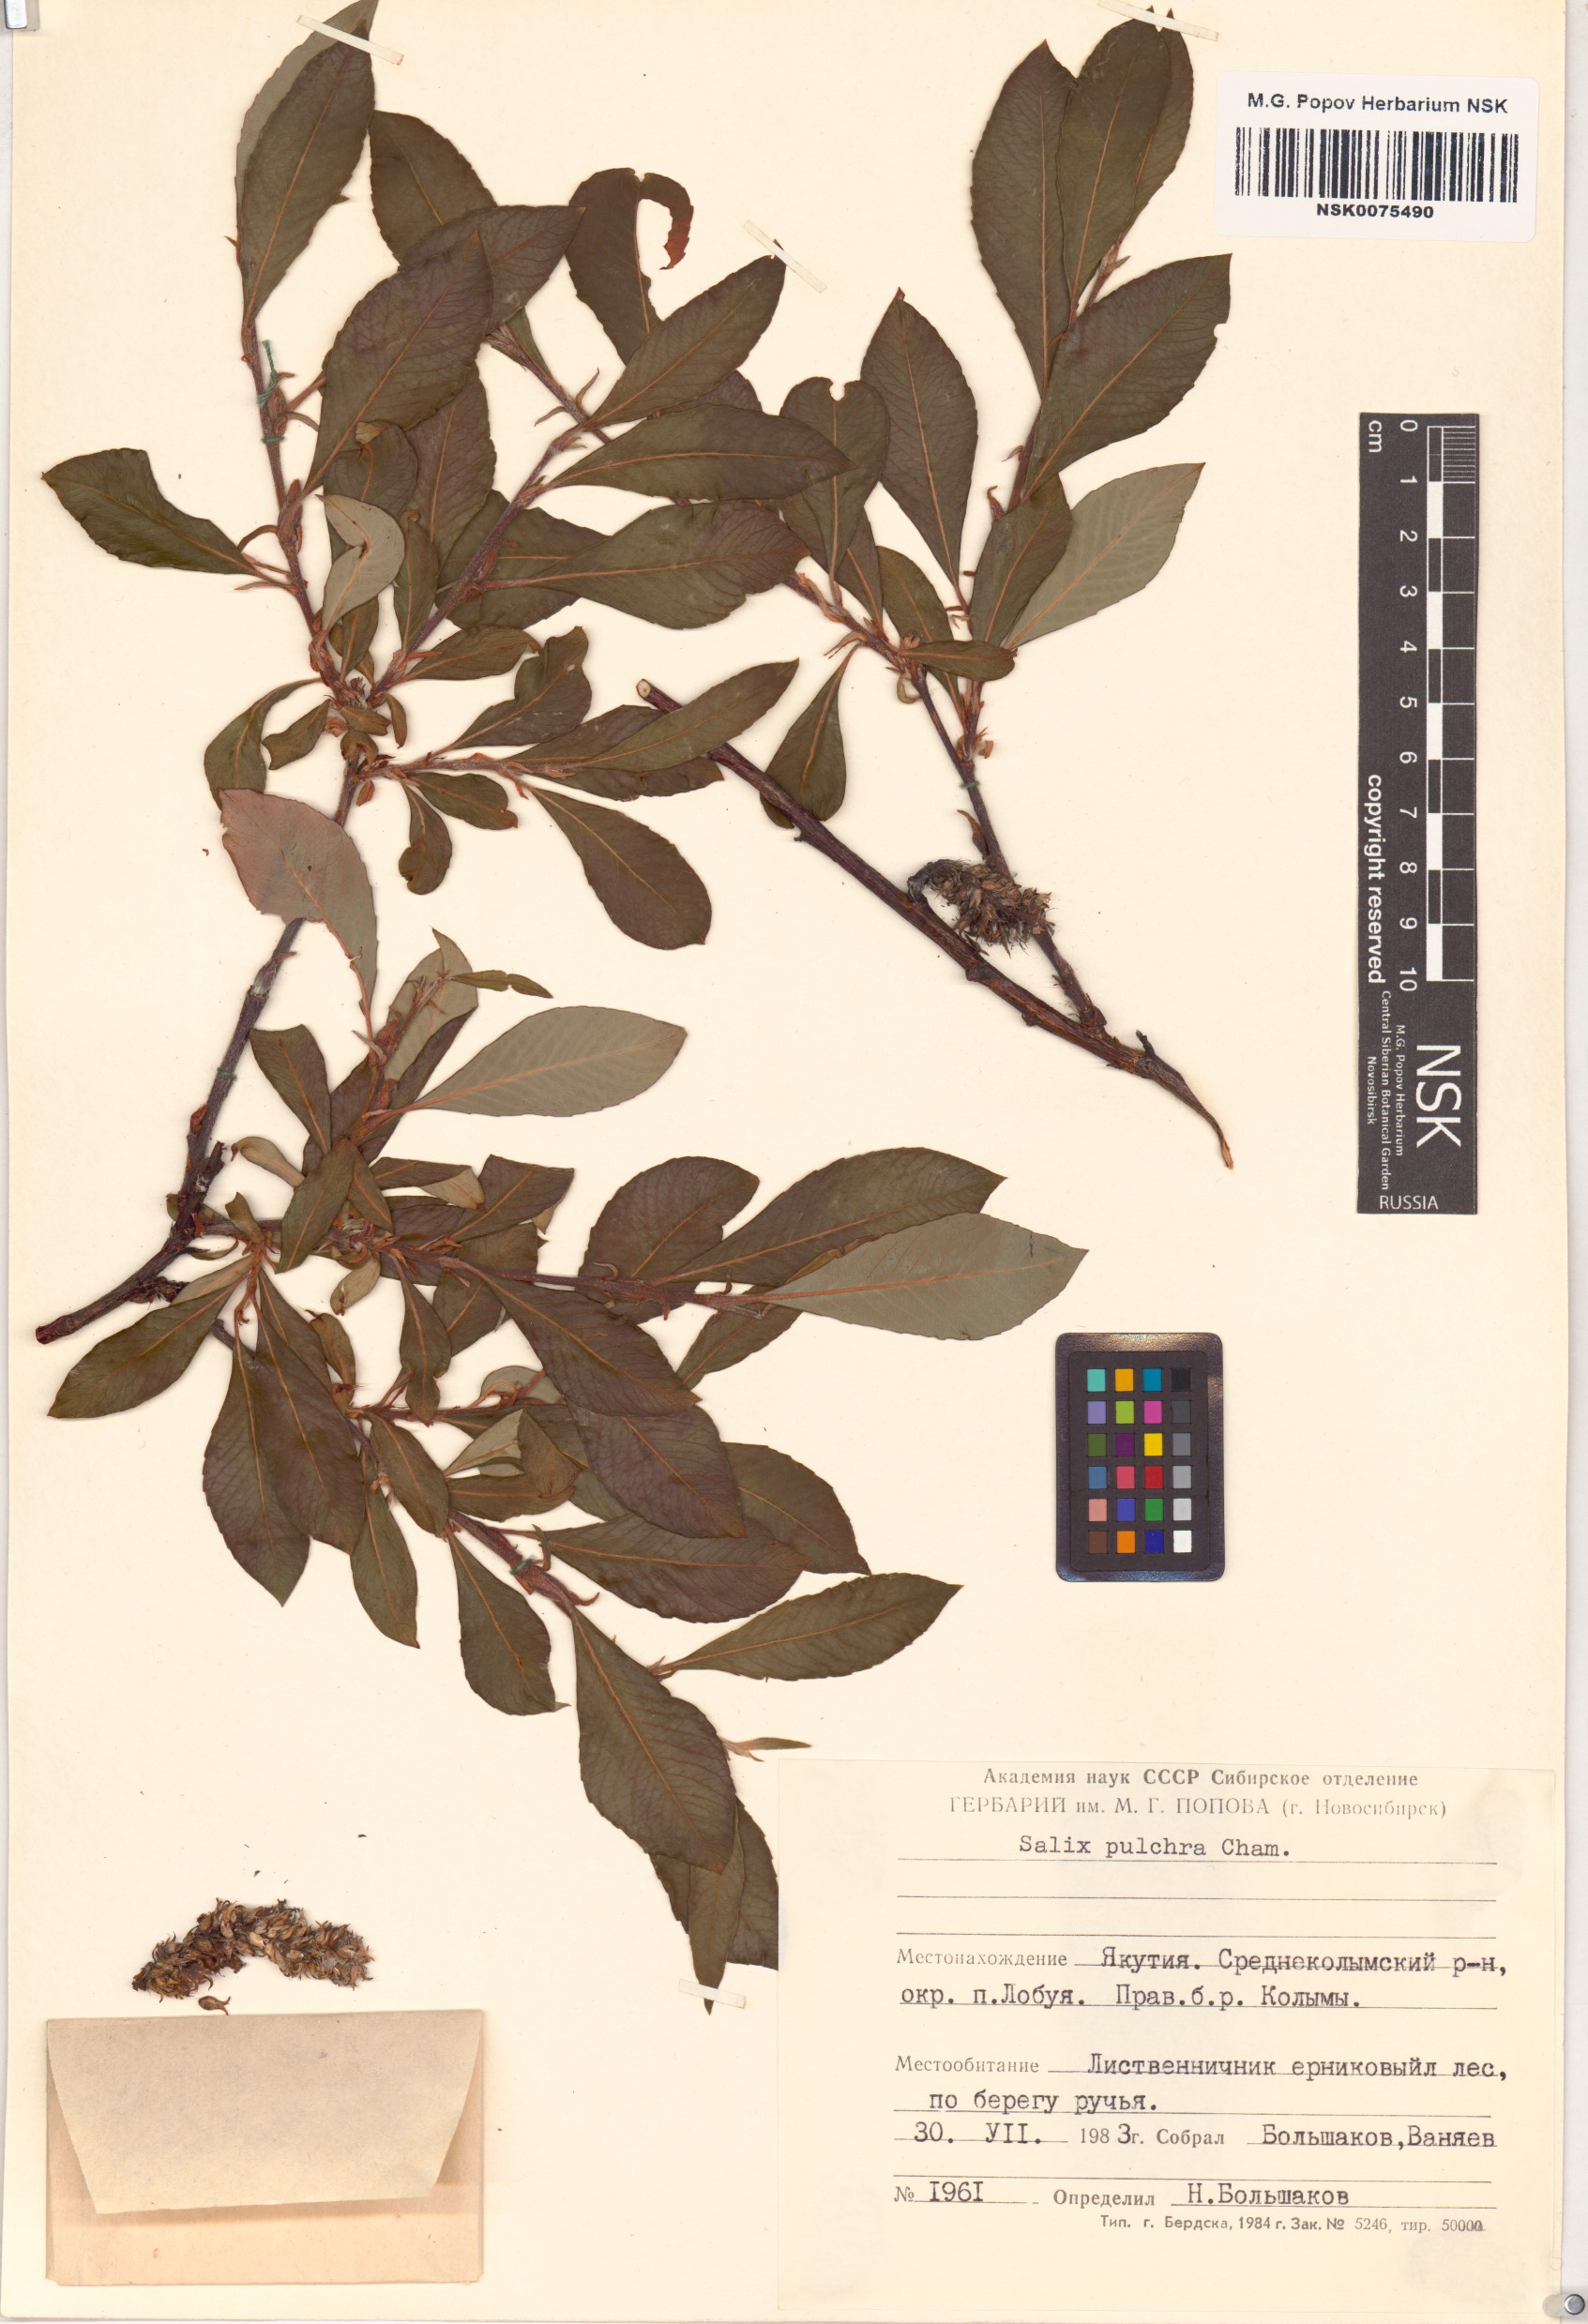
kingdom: Plantae
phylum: Tracheophyta
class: Magnoliopsida
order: Malpighiales
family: Salicaceae
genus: Salix
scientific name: Salix pulchra
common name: Diamond-leaved willow
